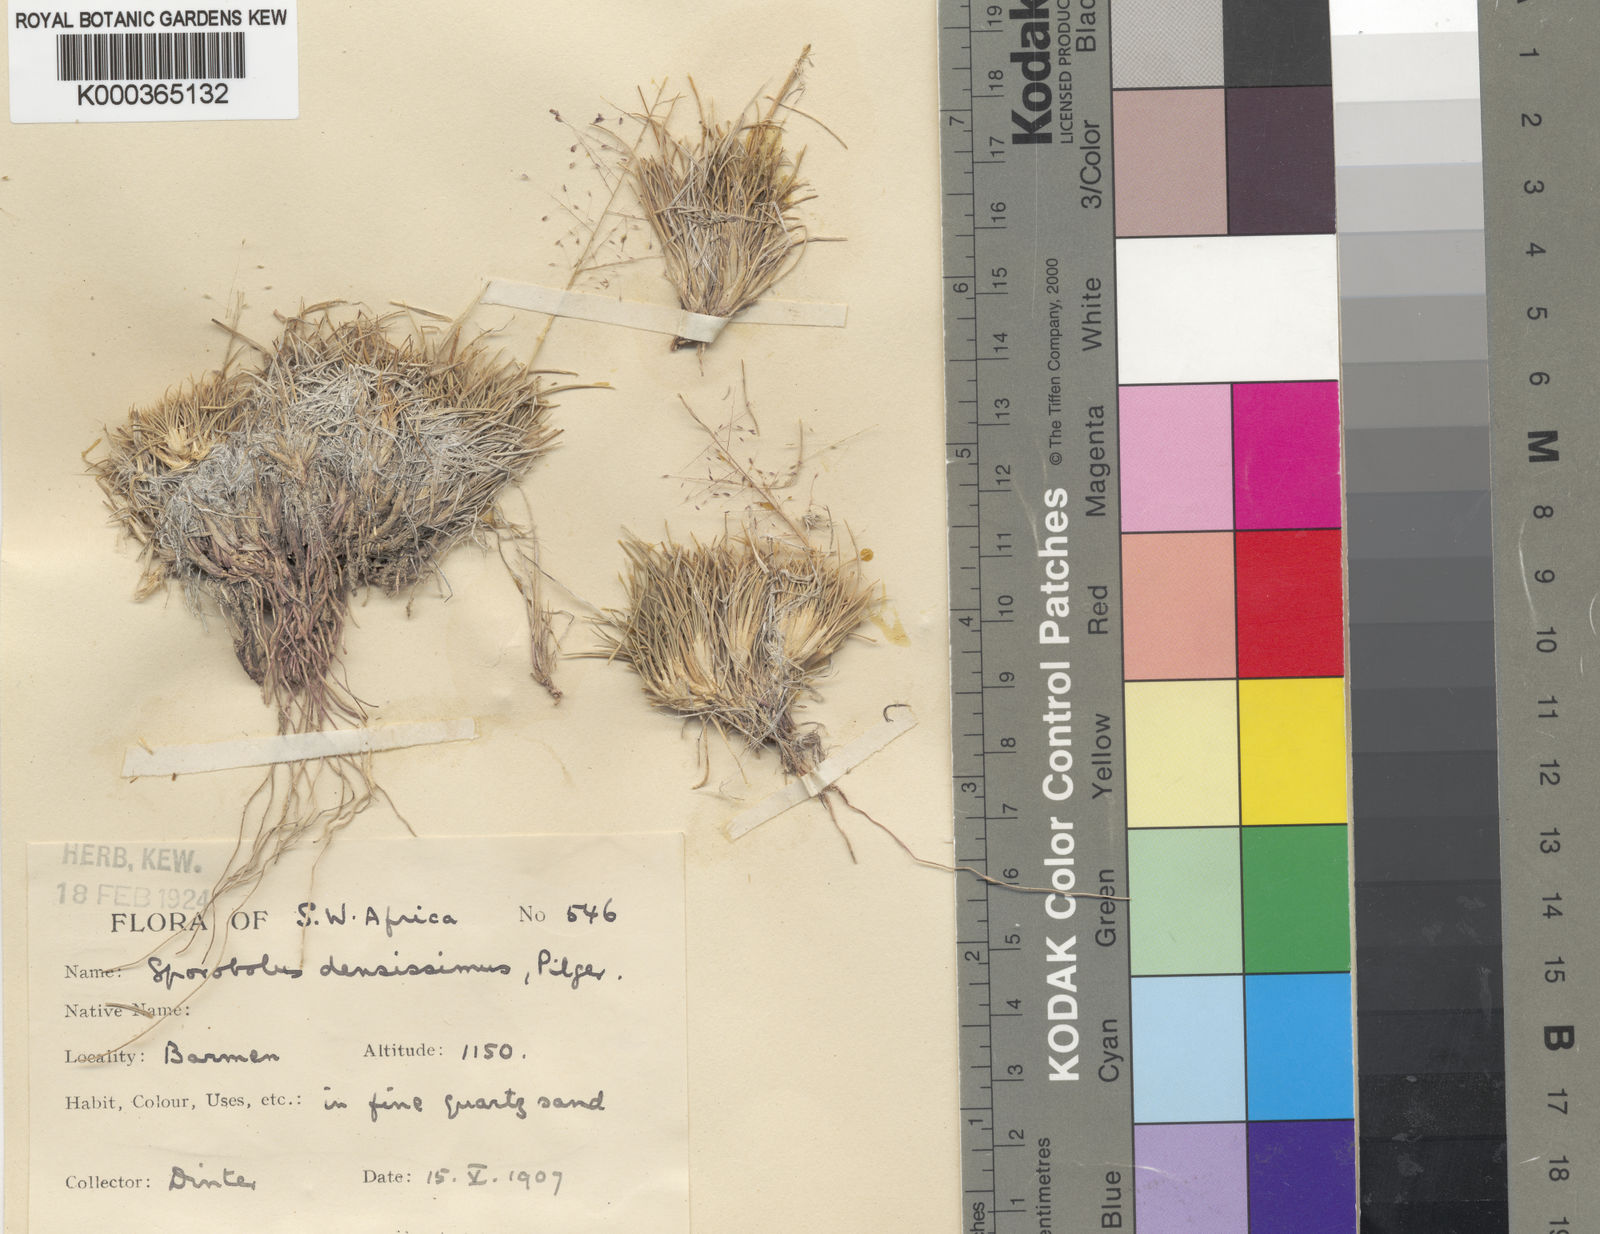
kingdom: Plantae
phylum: Tracheophyta
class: Liliopsida
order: Poales
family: Poaceae
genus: Sporobolus
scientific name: Sporobolus nebulosus
